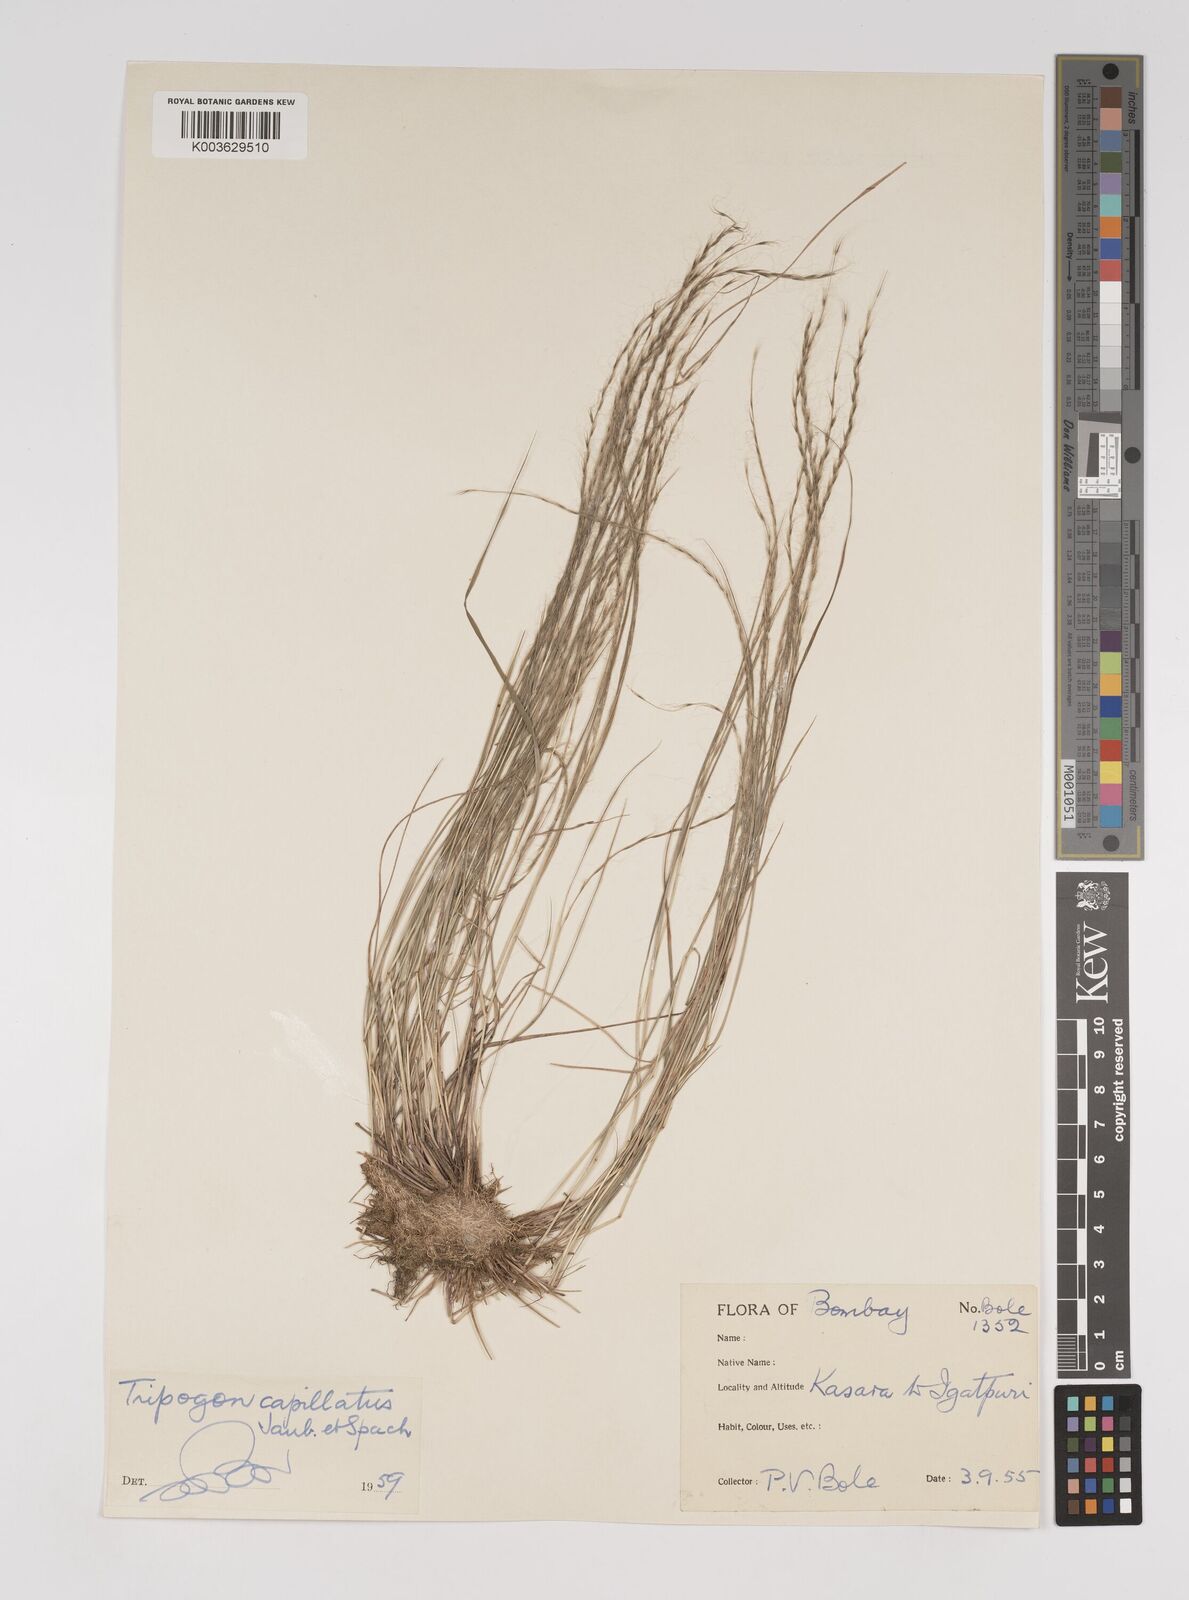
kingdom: Plantae
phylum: Tracheophyta
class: Liliopsida
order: Poales
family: Poaceae
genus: Tripogon
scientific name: Tripogon capillatus
